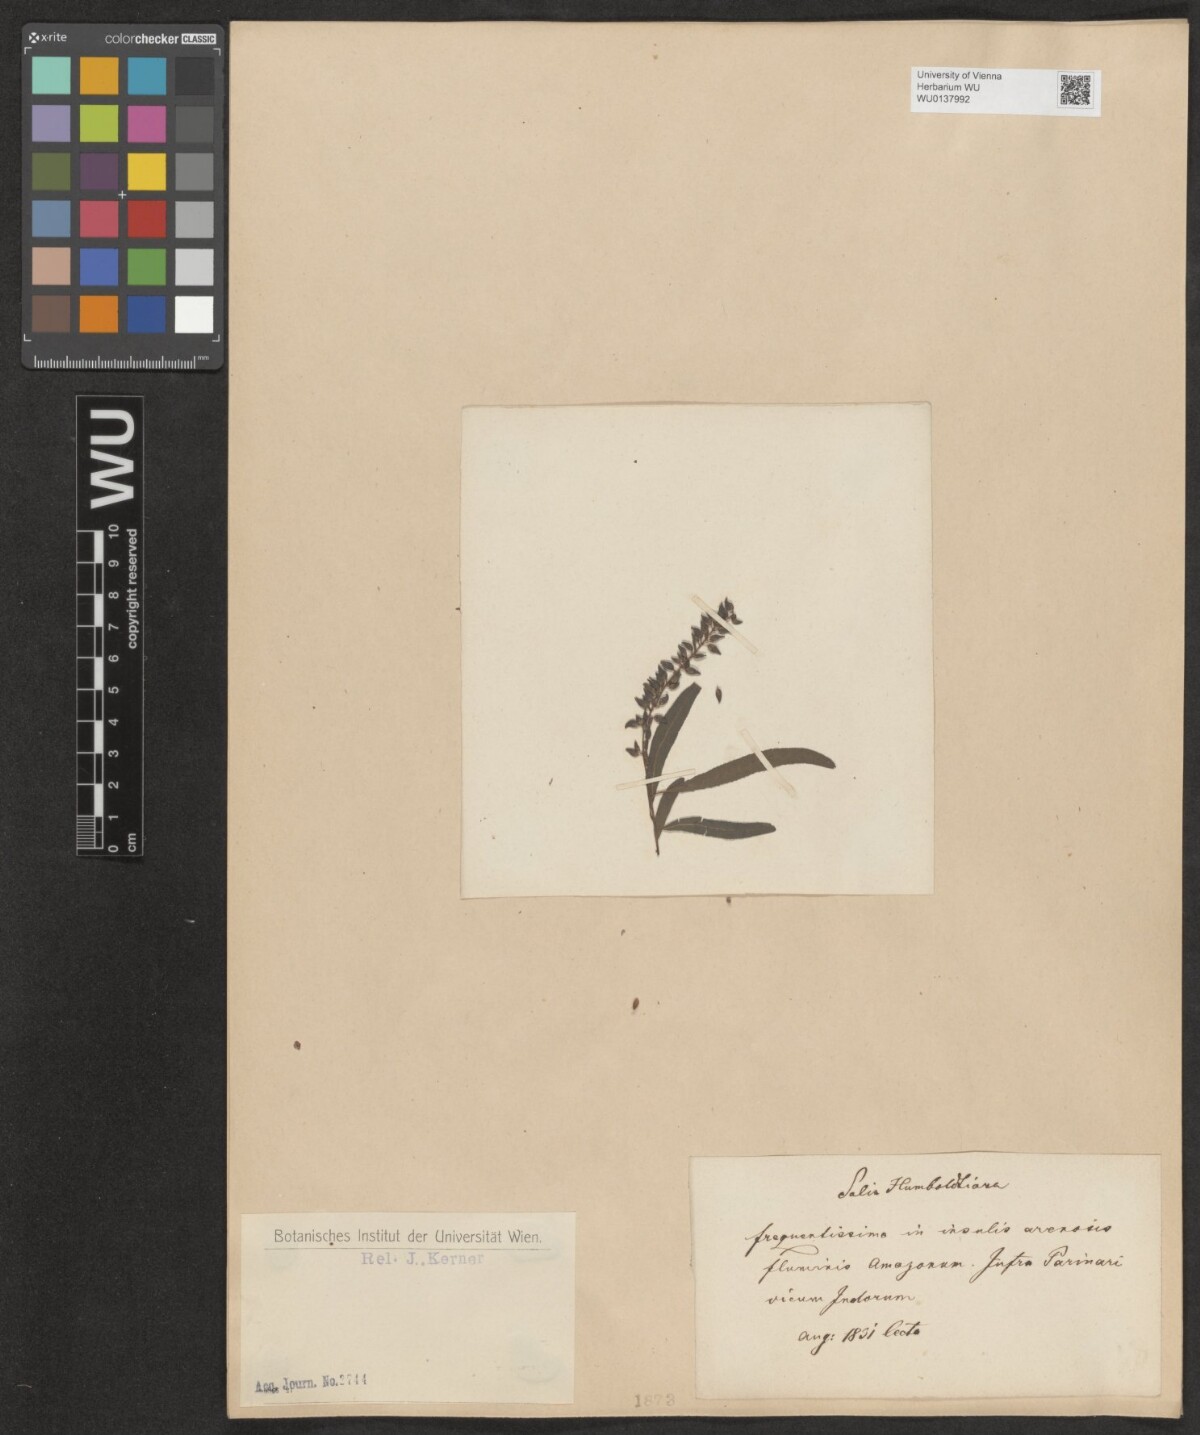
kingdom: Plantae
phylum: Tracheophyta
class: Magnoliopsida
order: Malpighiales
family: Salicaceae
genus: Salix
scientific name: Salix humboldtiana
